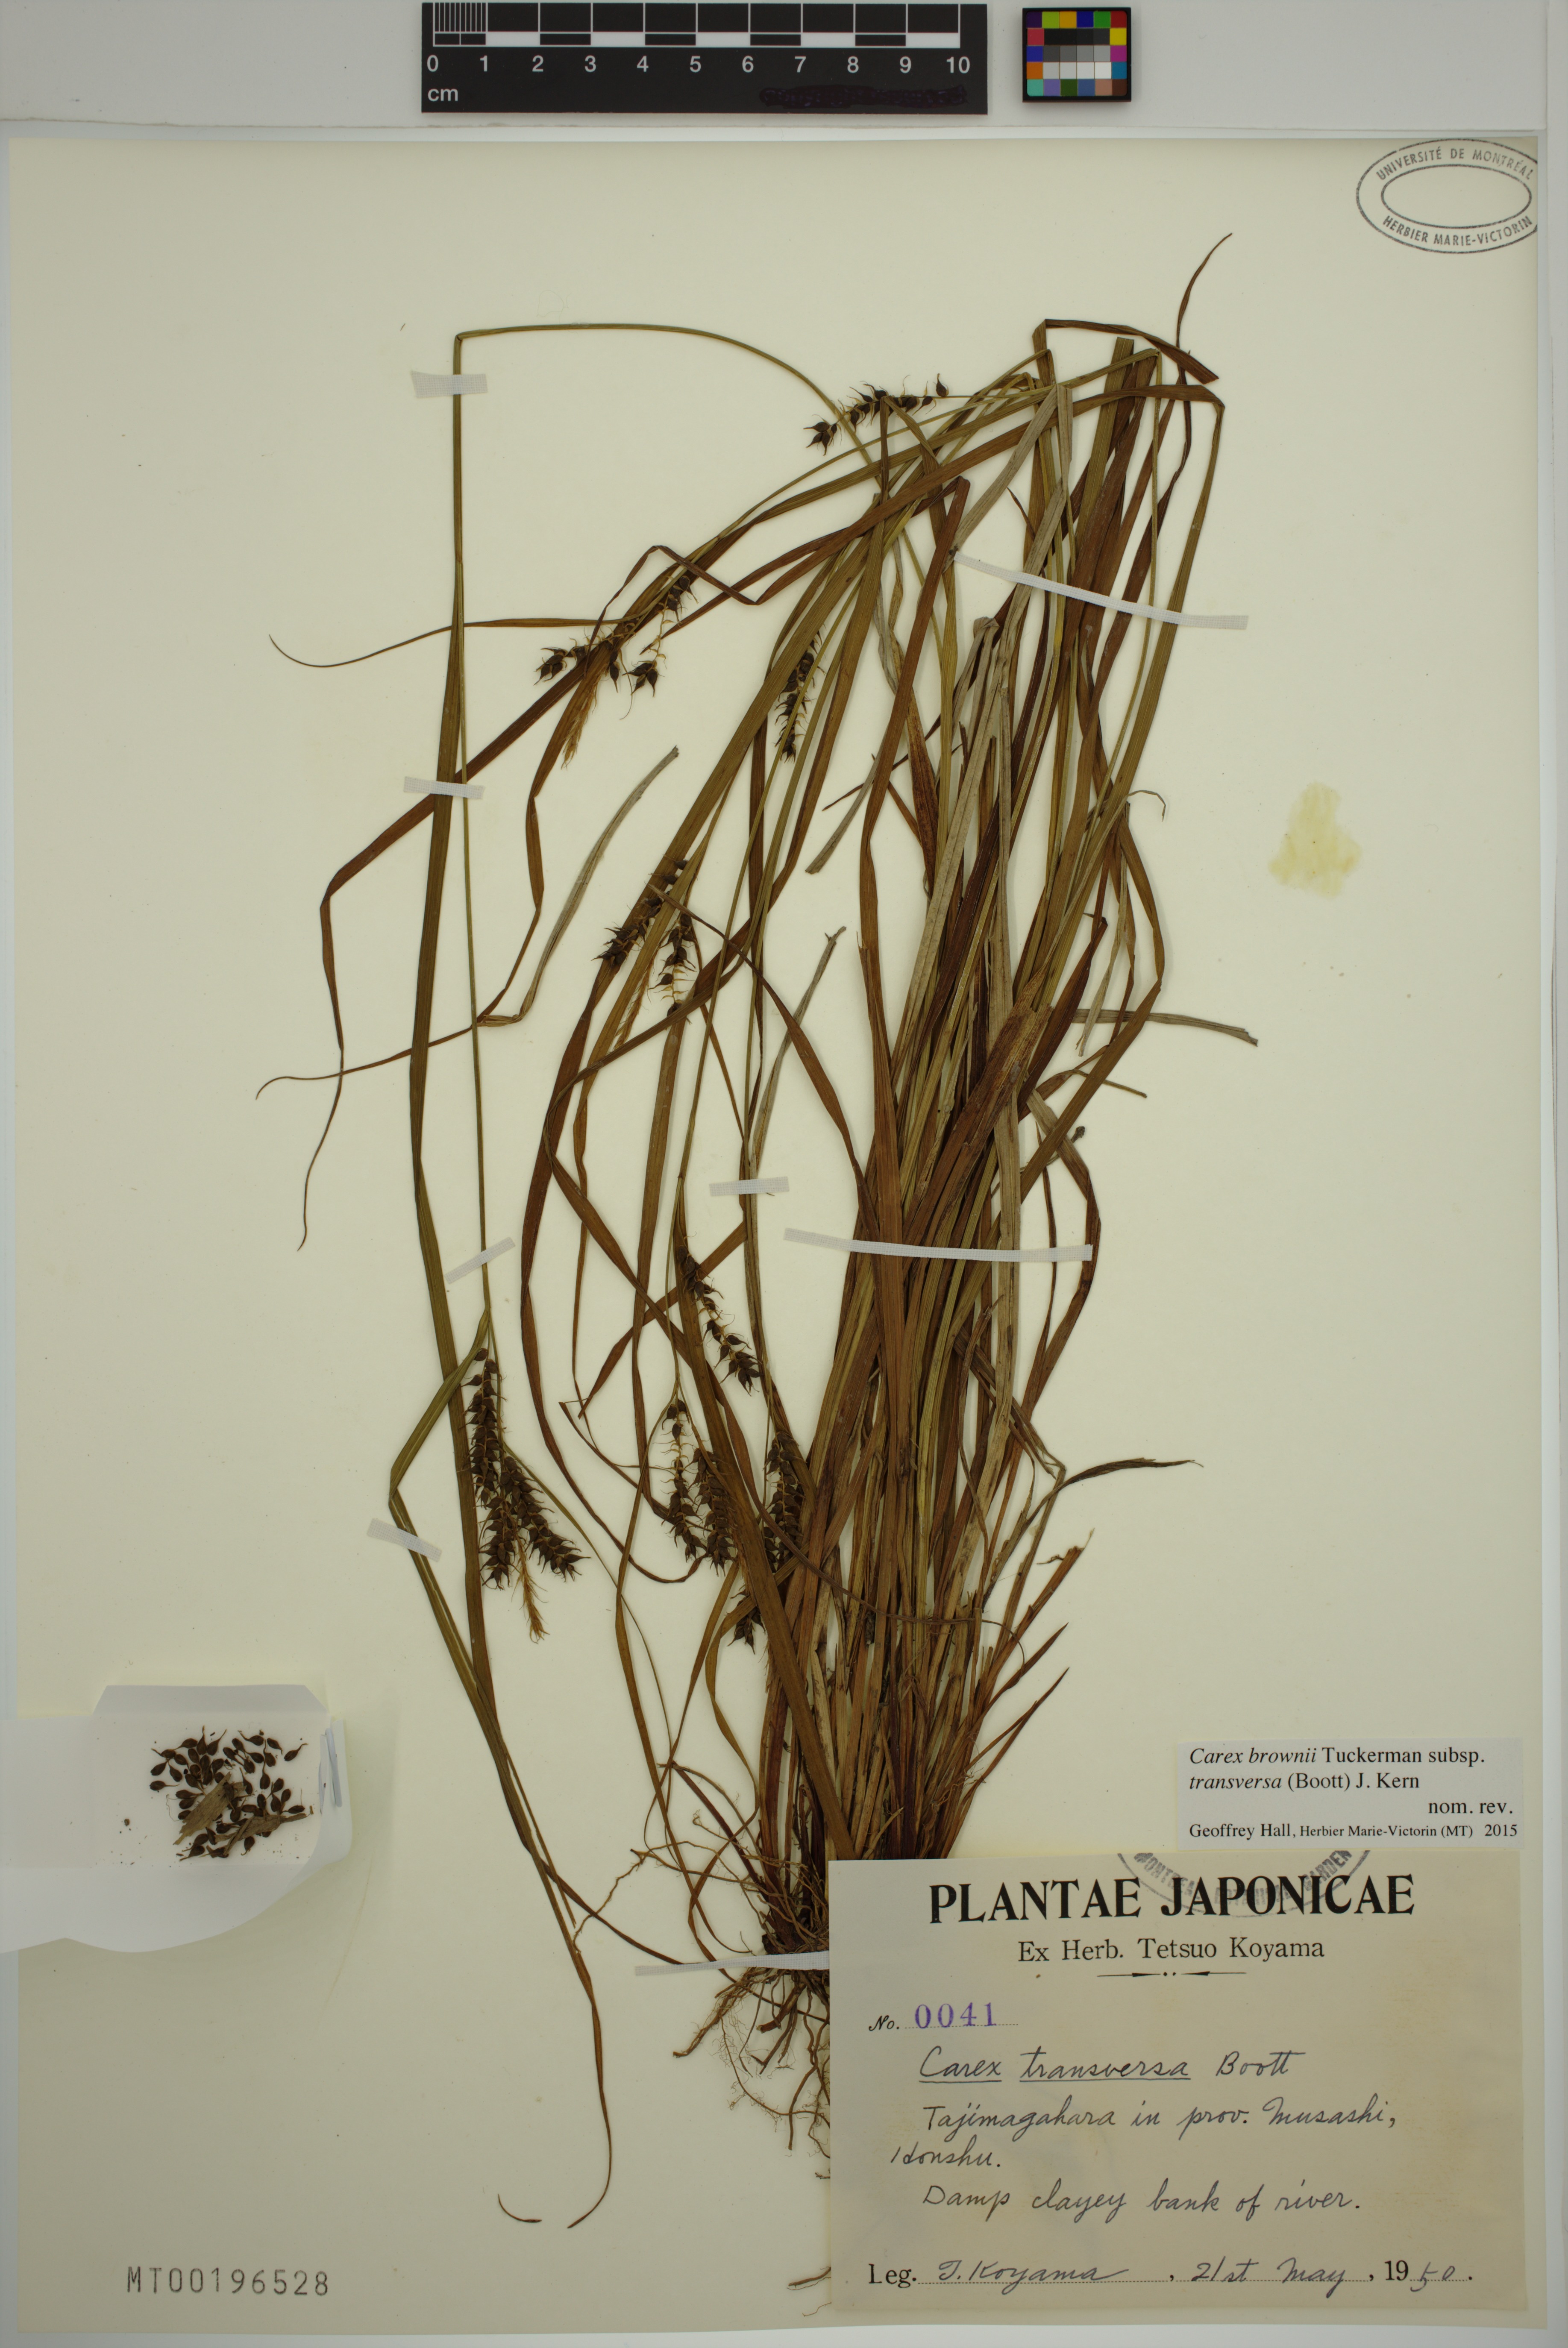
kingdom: Plantae
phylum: Tracheophyta
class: Liliopsida
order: Poales
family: Cyperaceae
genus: Carex
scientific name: Carex brownii
